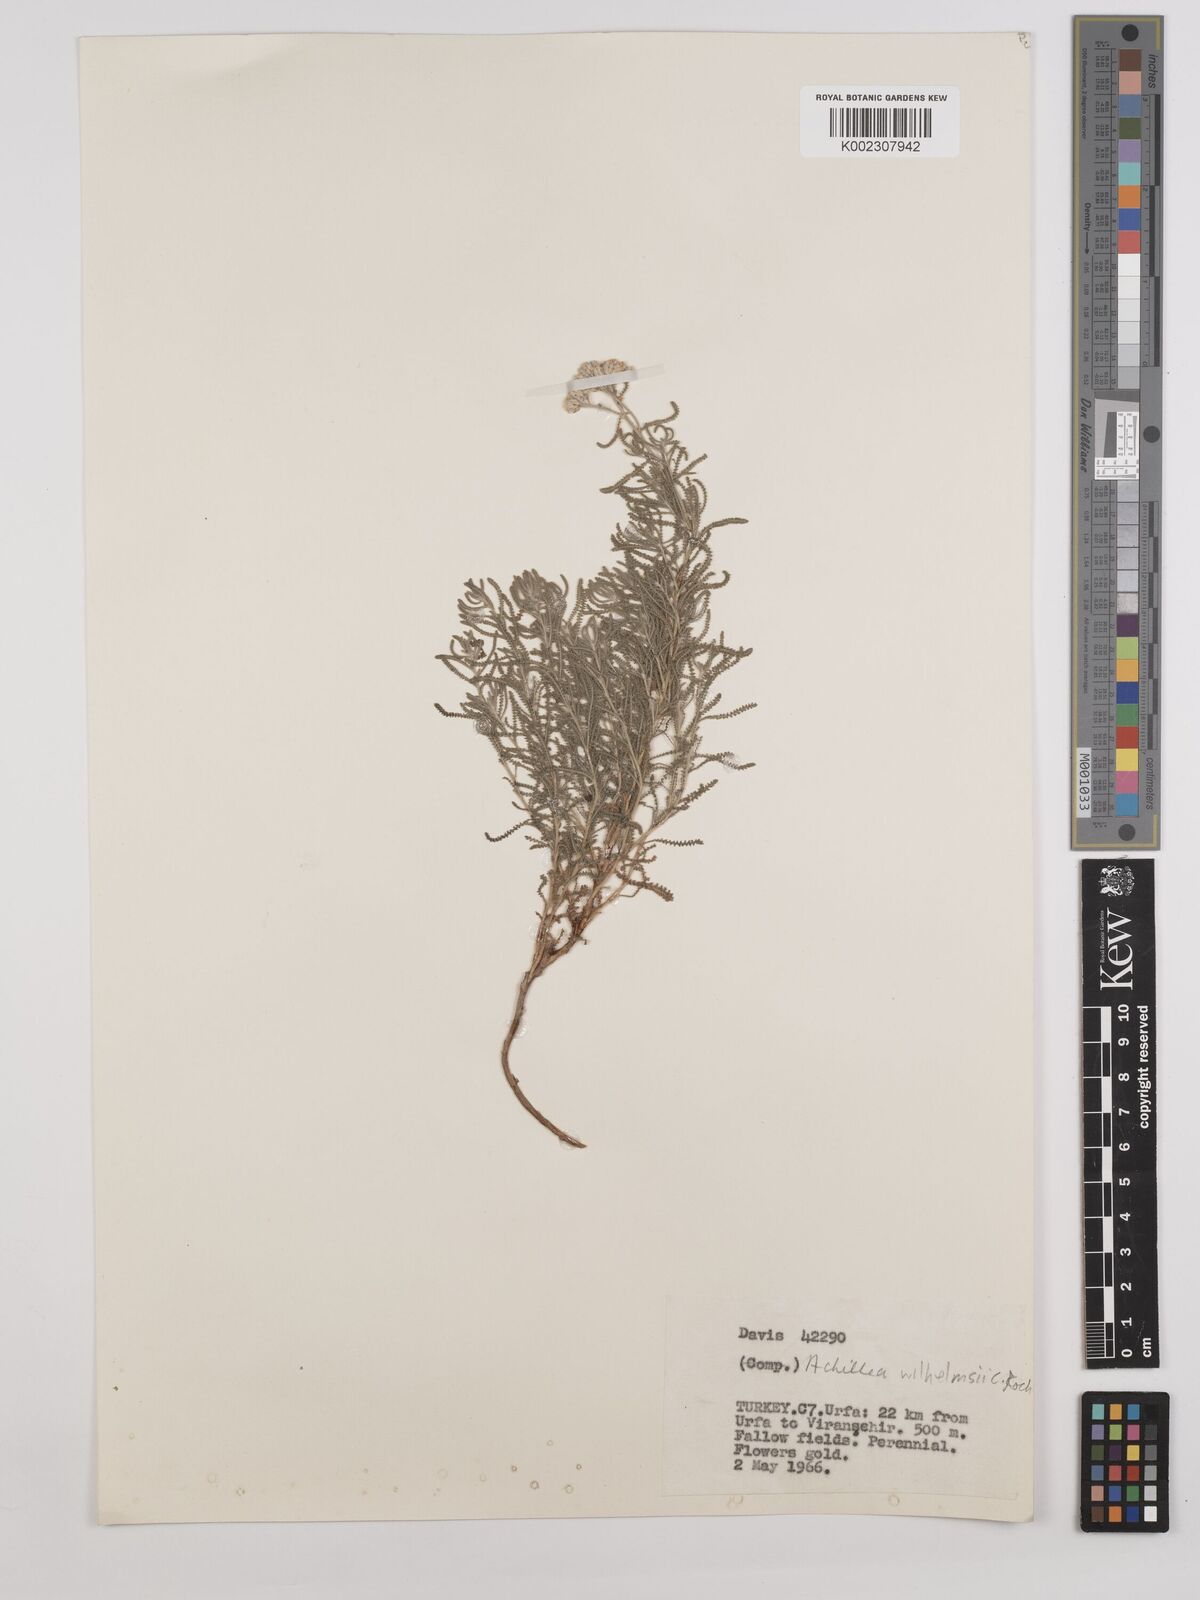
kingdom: Plantae
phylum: Tracheophyta
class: Magnoliopsida
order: Asterales
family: Asteraceae
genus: Achillea
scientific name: Achillea tenuifolia
